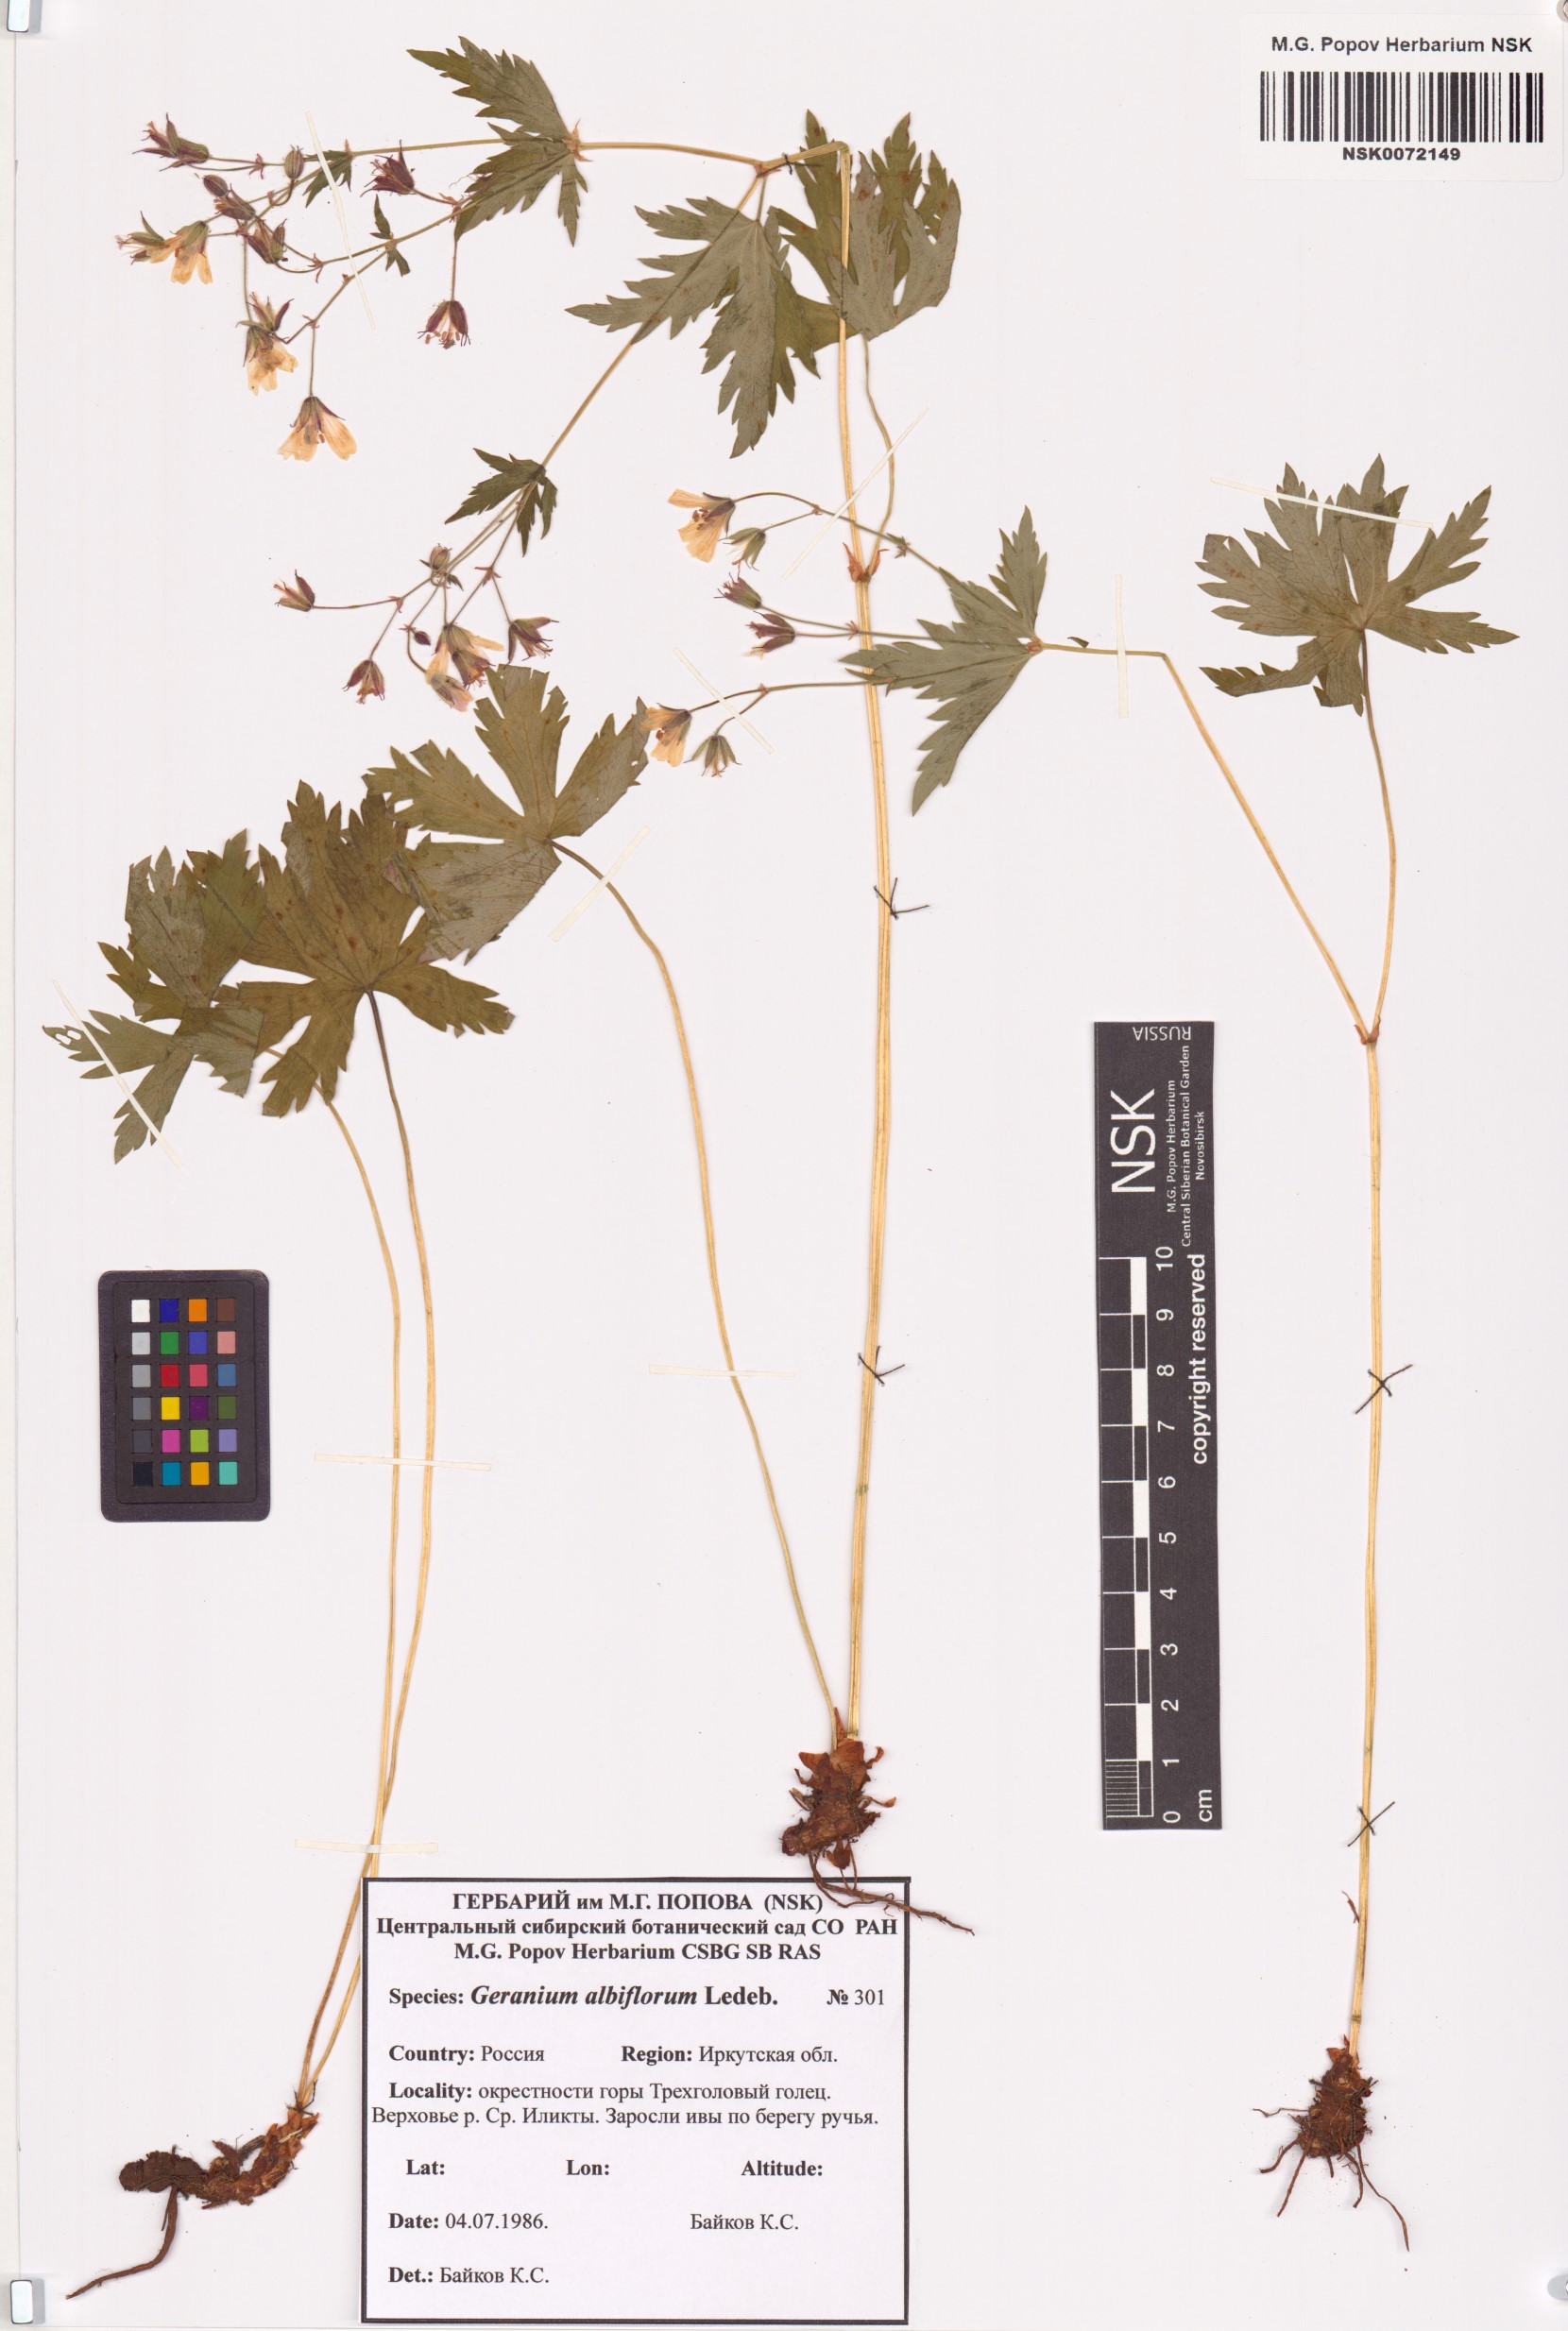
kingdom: Plantae
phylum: Tracheophyta
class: Magnoliopsida
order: Geraniales
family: Geraniaceae
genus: Geranium
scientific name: Geranium albiflorum
